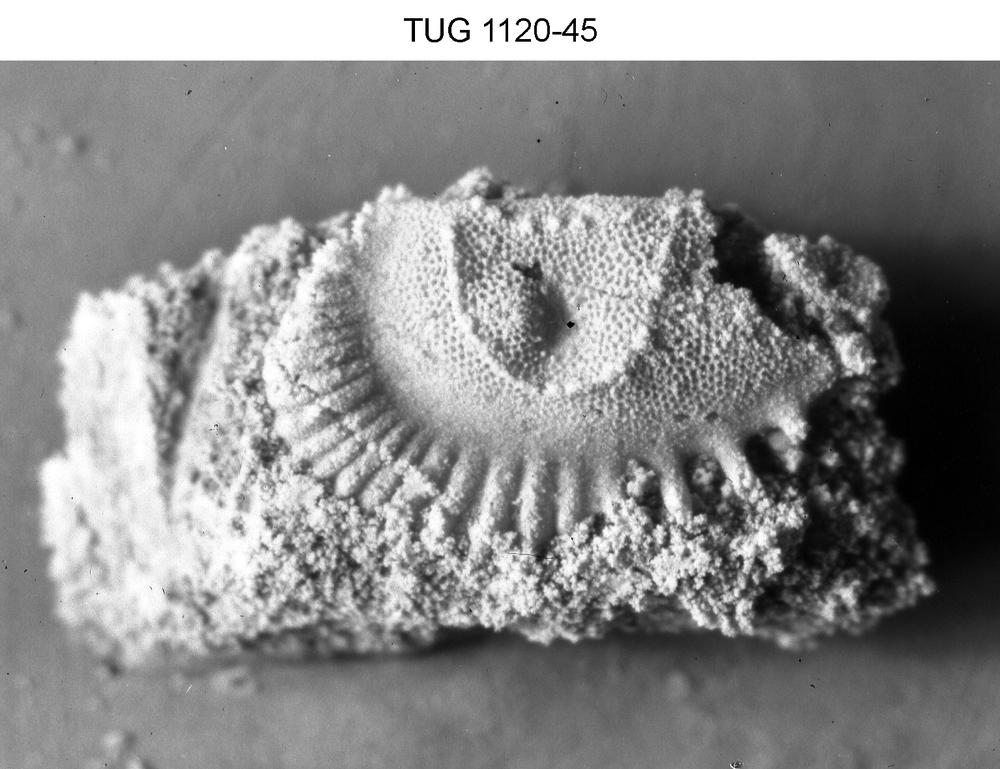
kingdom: Animalia
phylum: Arthropoda
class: Ostracoda
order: Palaeocopida
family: Tetradellidae
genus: Piretella
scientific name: Piretella
